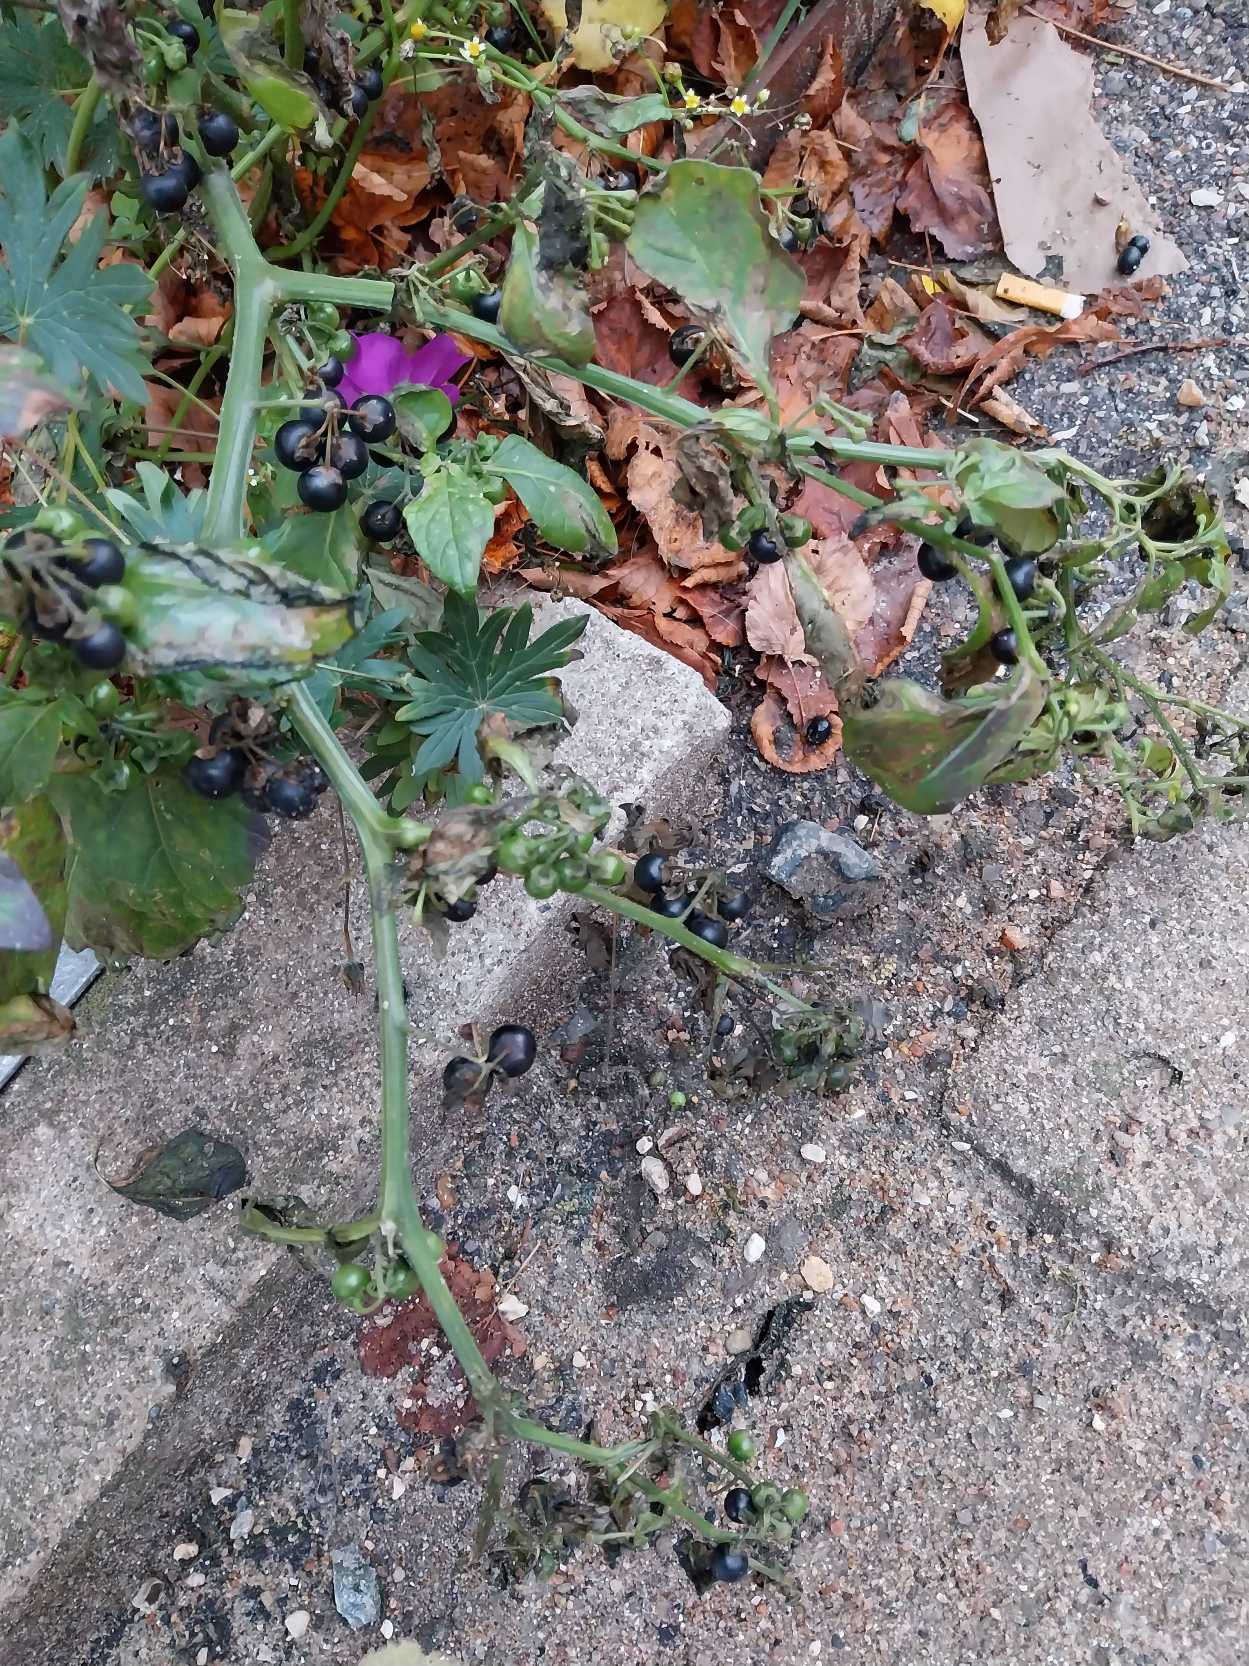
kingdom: Plantae
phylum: Tracheophyta
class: Magnoliopsida
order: Solanales
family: Solanaceae
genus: Solanum
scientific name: Solanum nigrum
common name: Sort natskygge (underart)
